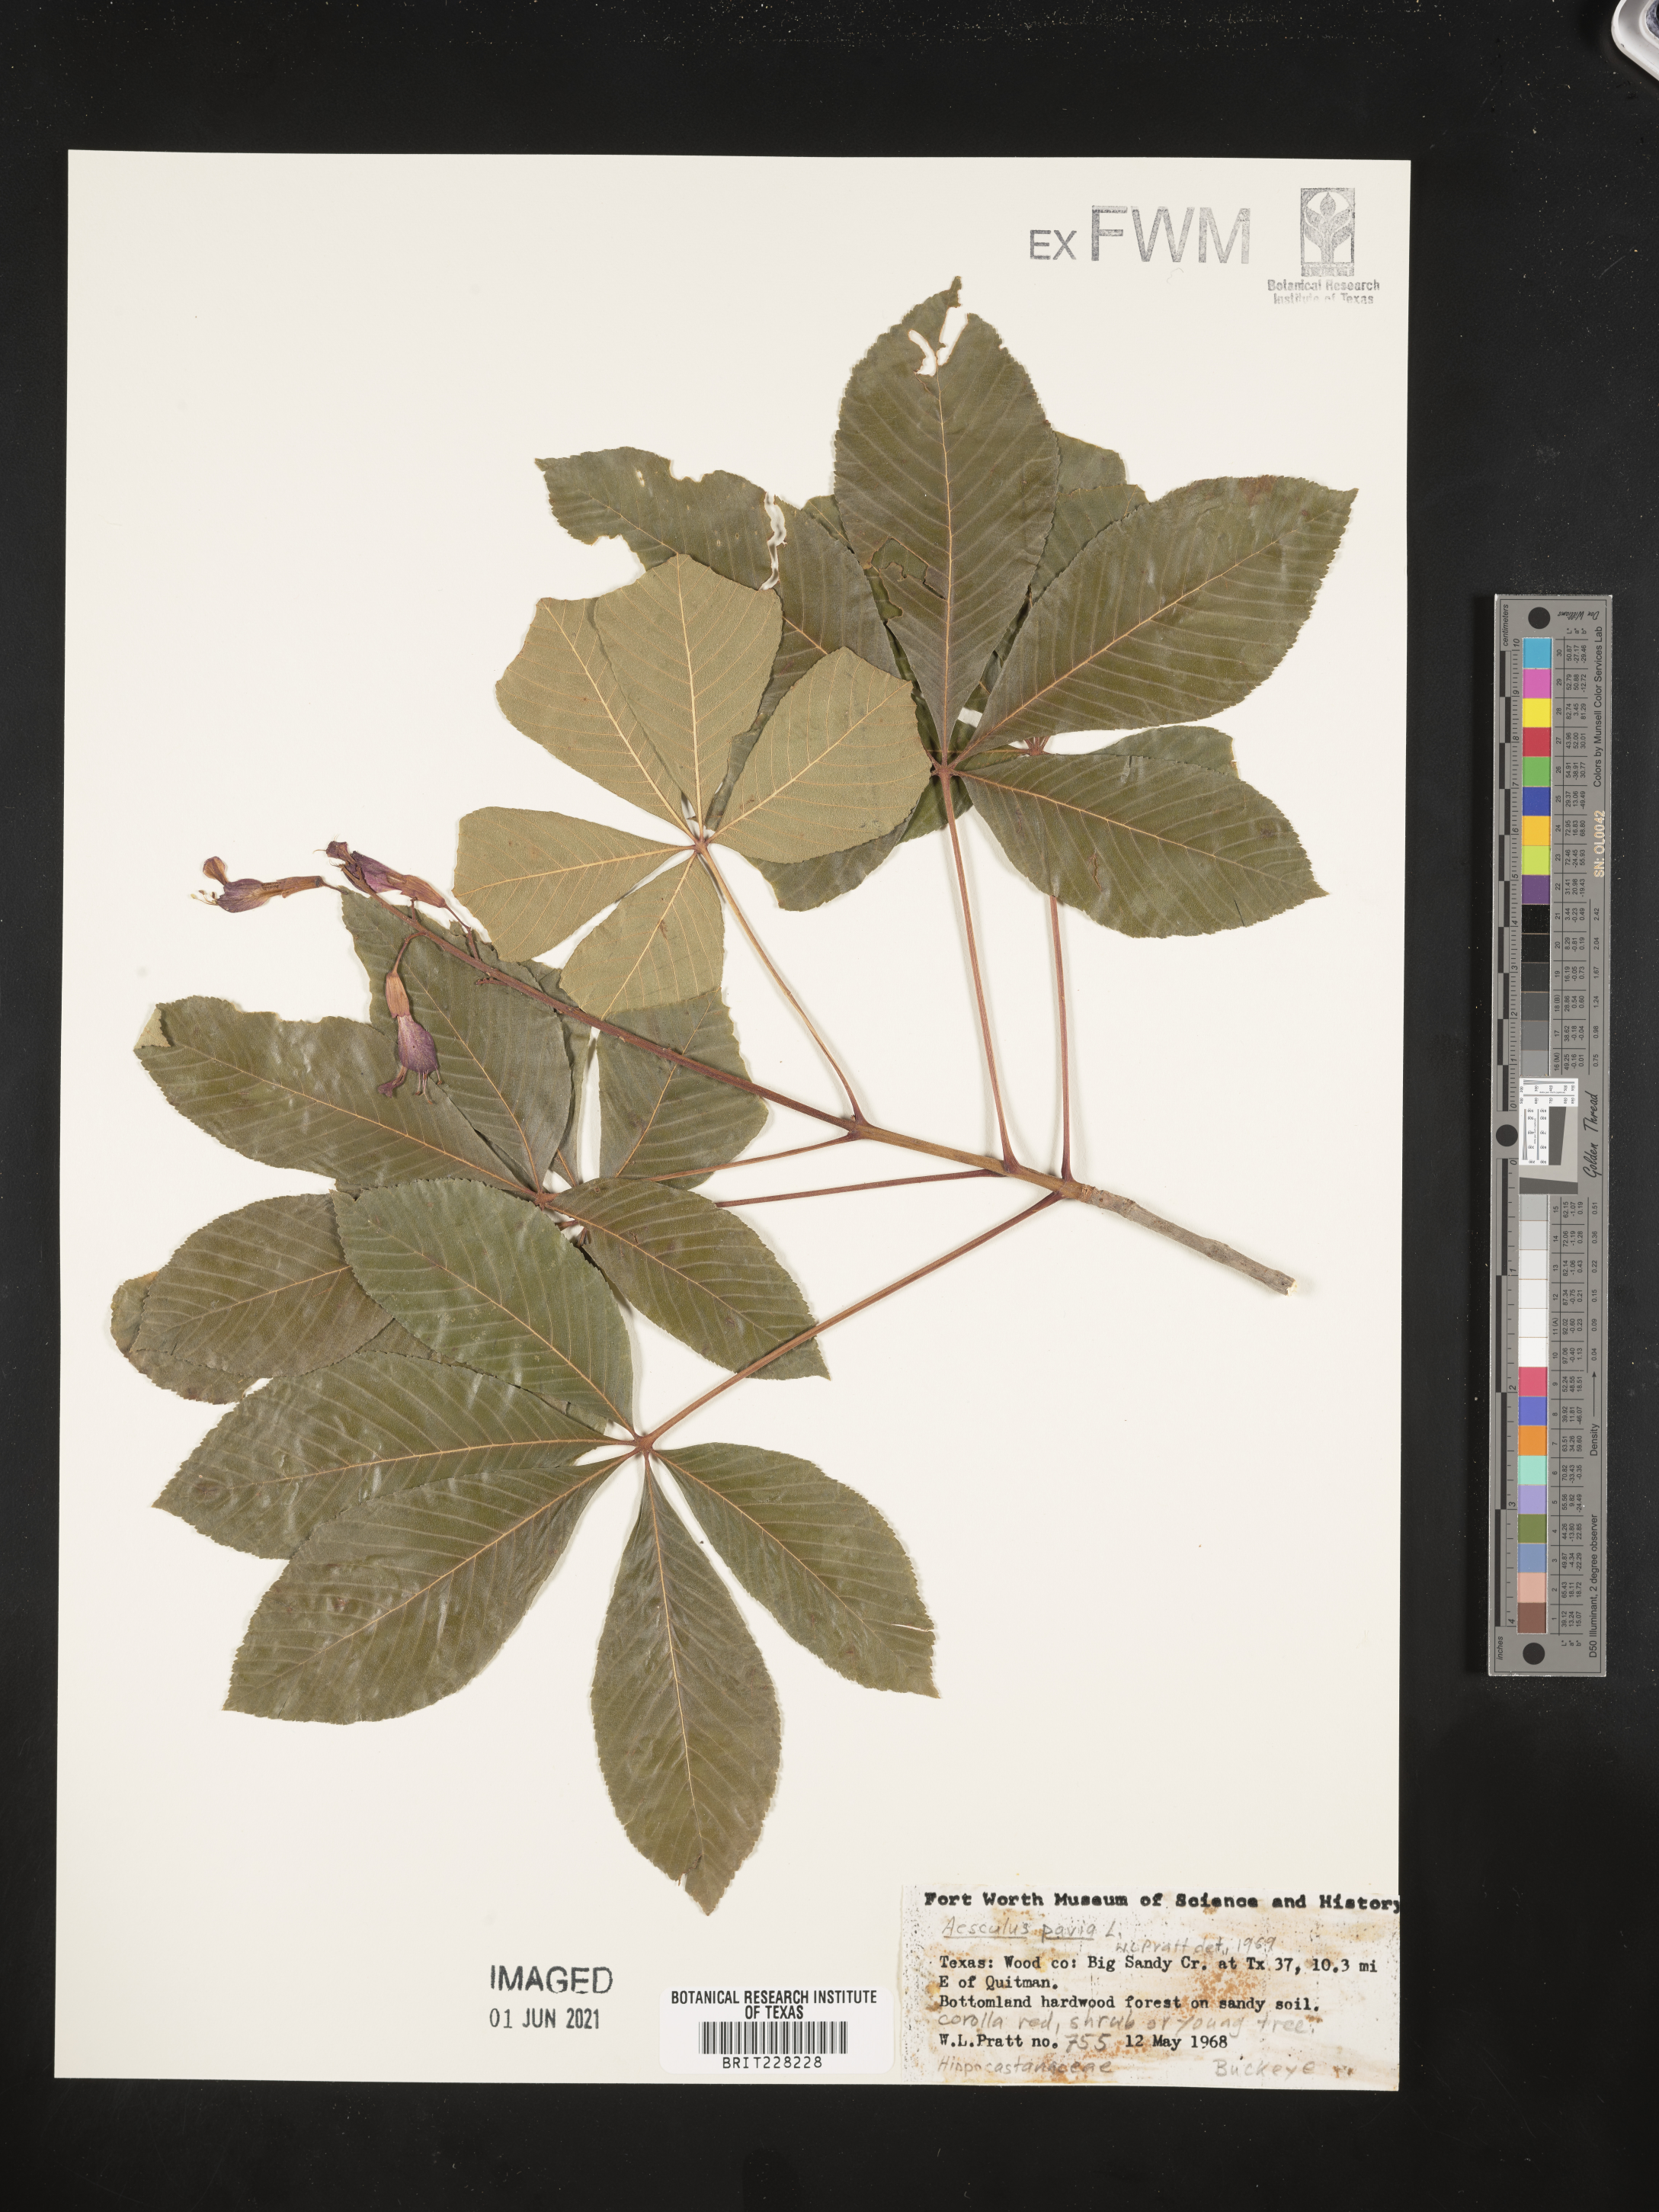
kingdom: Plantae
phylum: Tracheophyta
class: Magnoliopsida
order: Sapindales
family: Sapindaceae
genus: Aesculus
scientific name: Aesculus pavia
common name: Red buckeye
